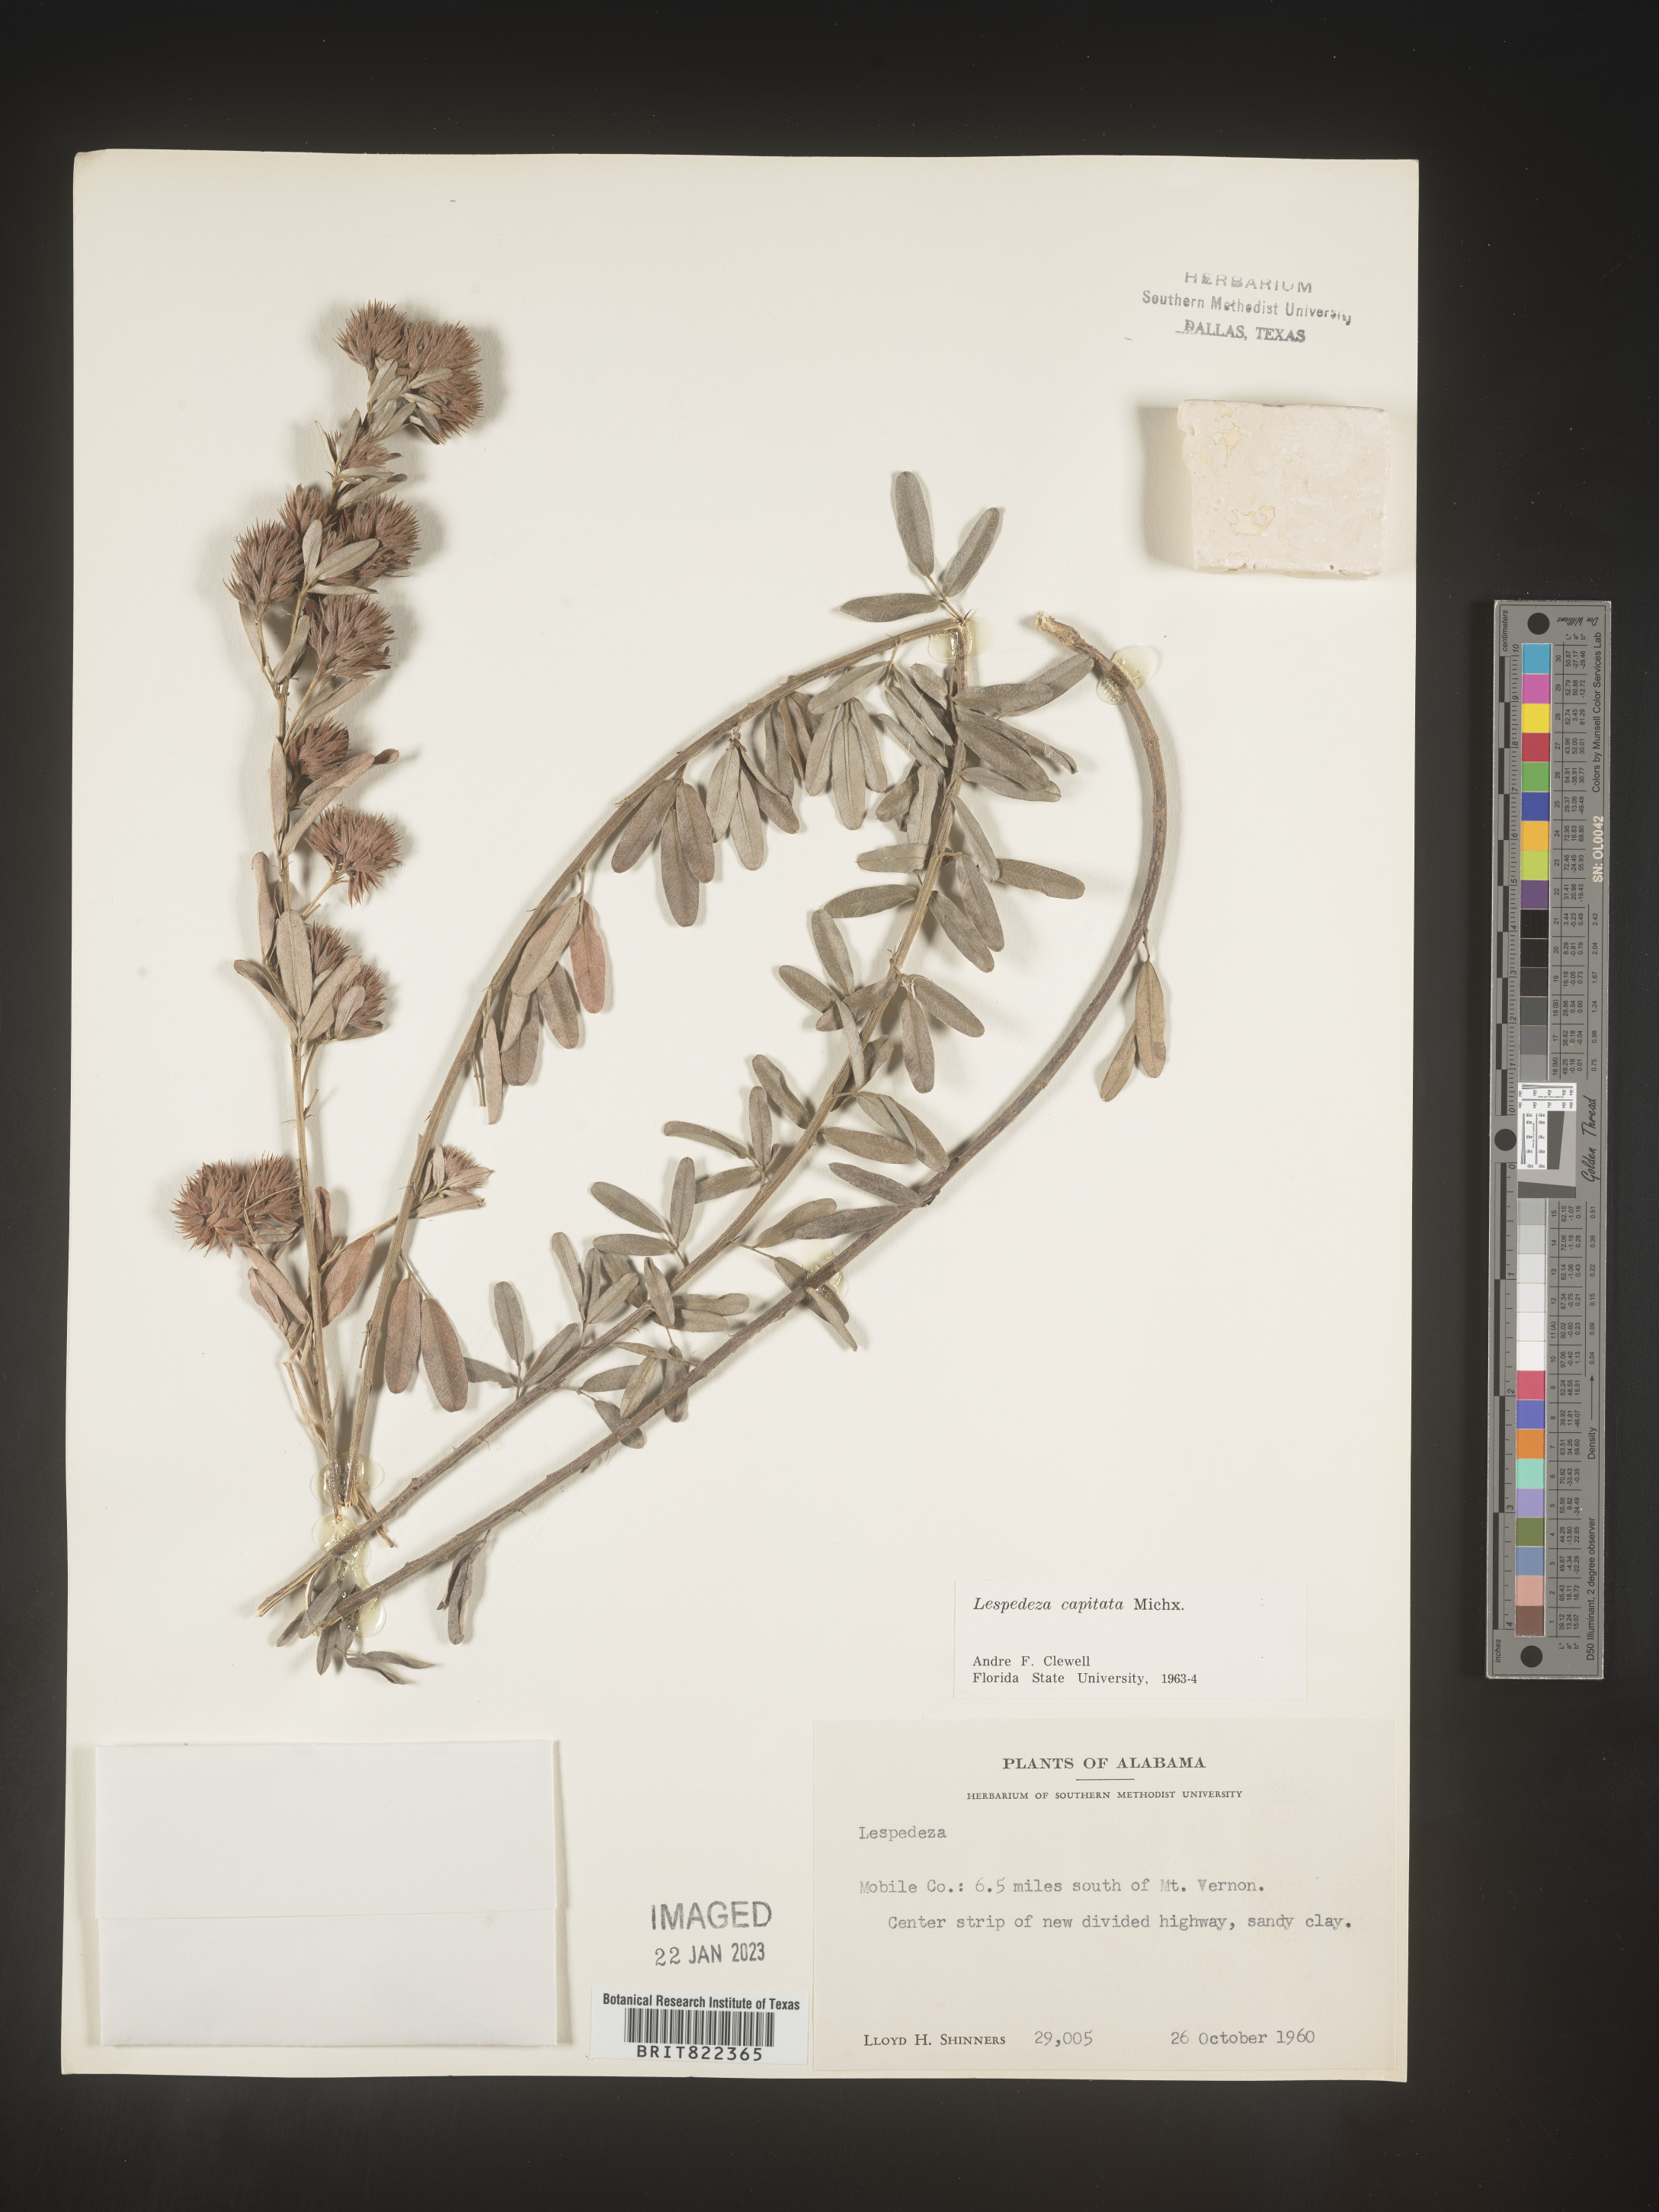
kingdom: Plantae
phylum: Tracheophyta
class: Magnoliopsida
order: Fabales
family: Fabaceae
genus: Lespedeza
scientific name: Lespedeza capitata
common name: Dusty clover
